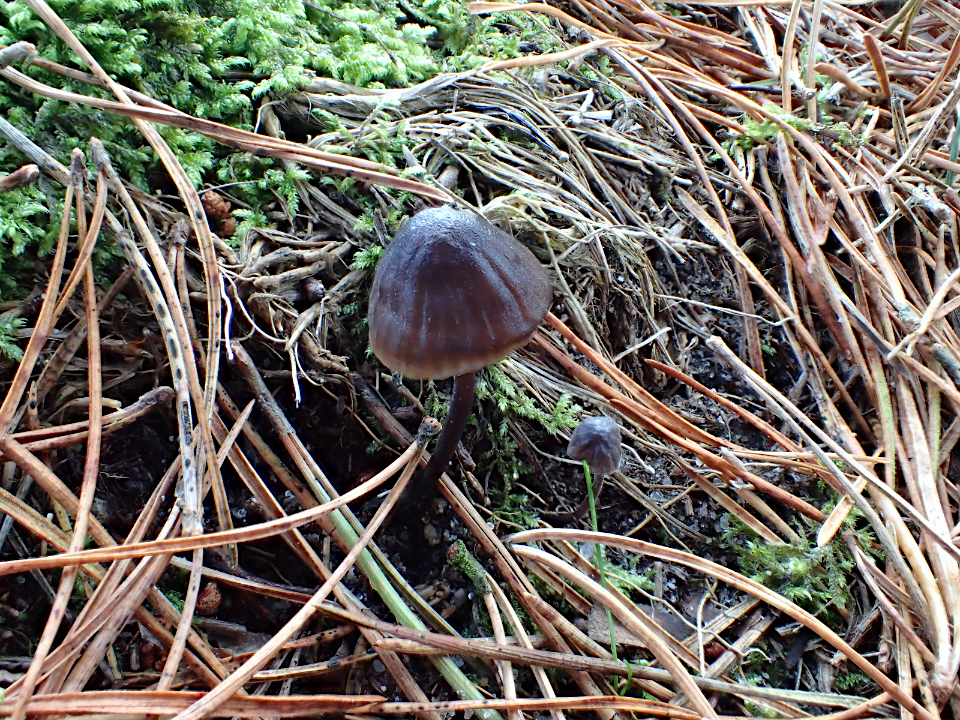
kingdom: Fungi
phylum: Basidiomycota
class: Agaricomycetes
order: Agaricales
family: Mycenaceae
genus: Mycena
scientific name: Mycena galopus
